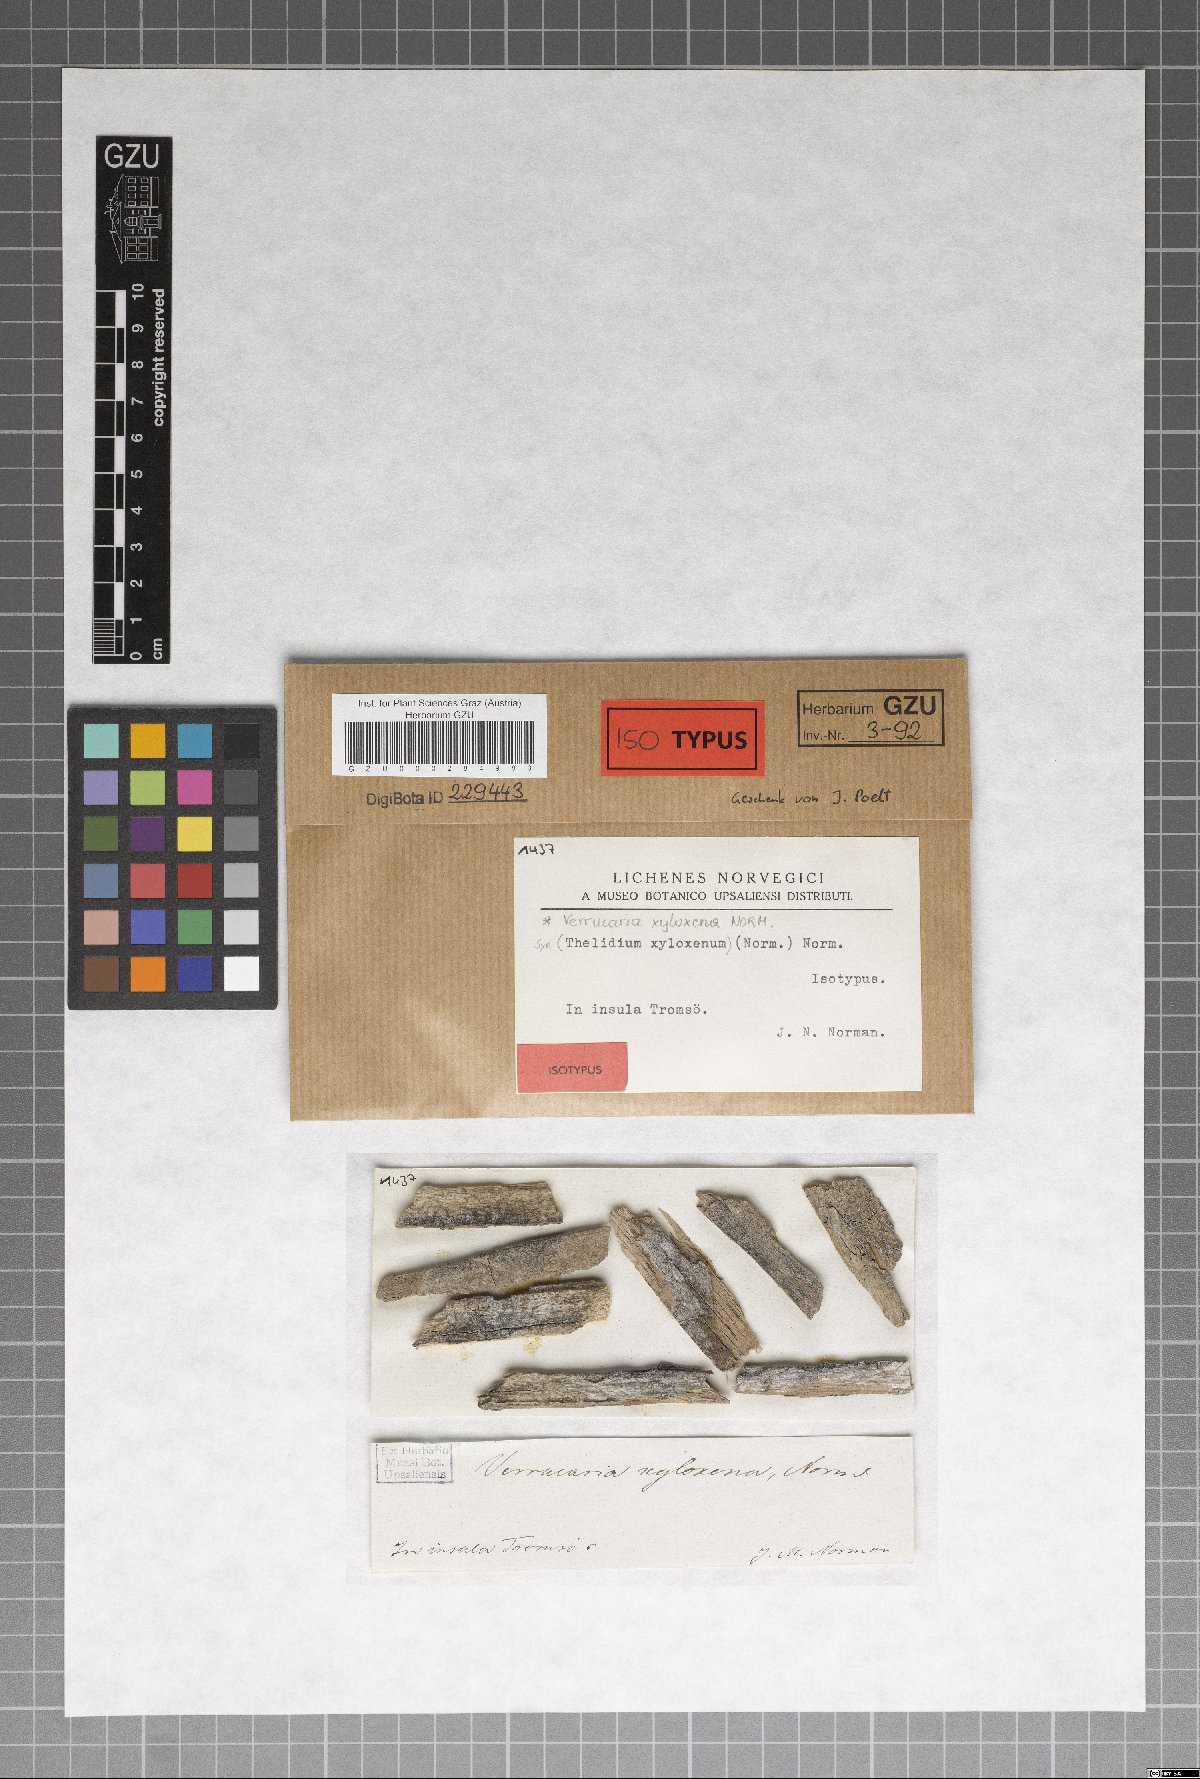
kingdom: Fungi
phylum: Ascomycota
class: Eurotiomycetes
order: Verrucariales
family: Verrucariaceae
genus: Verrucaria
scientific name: Verrucaria xyloxena
